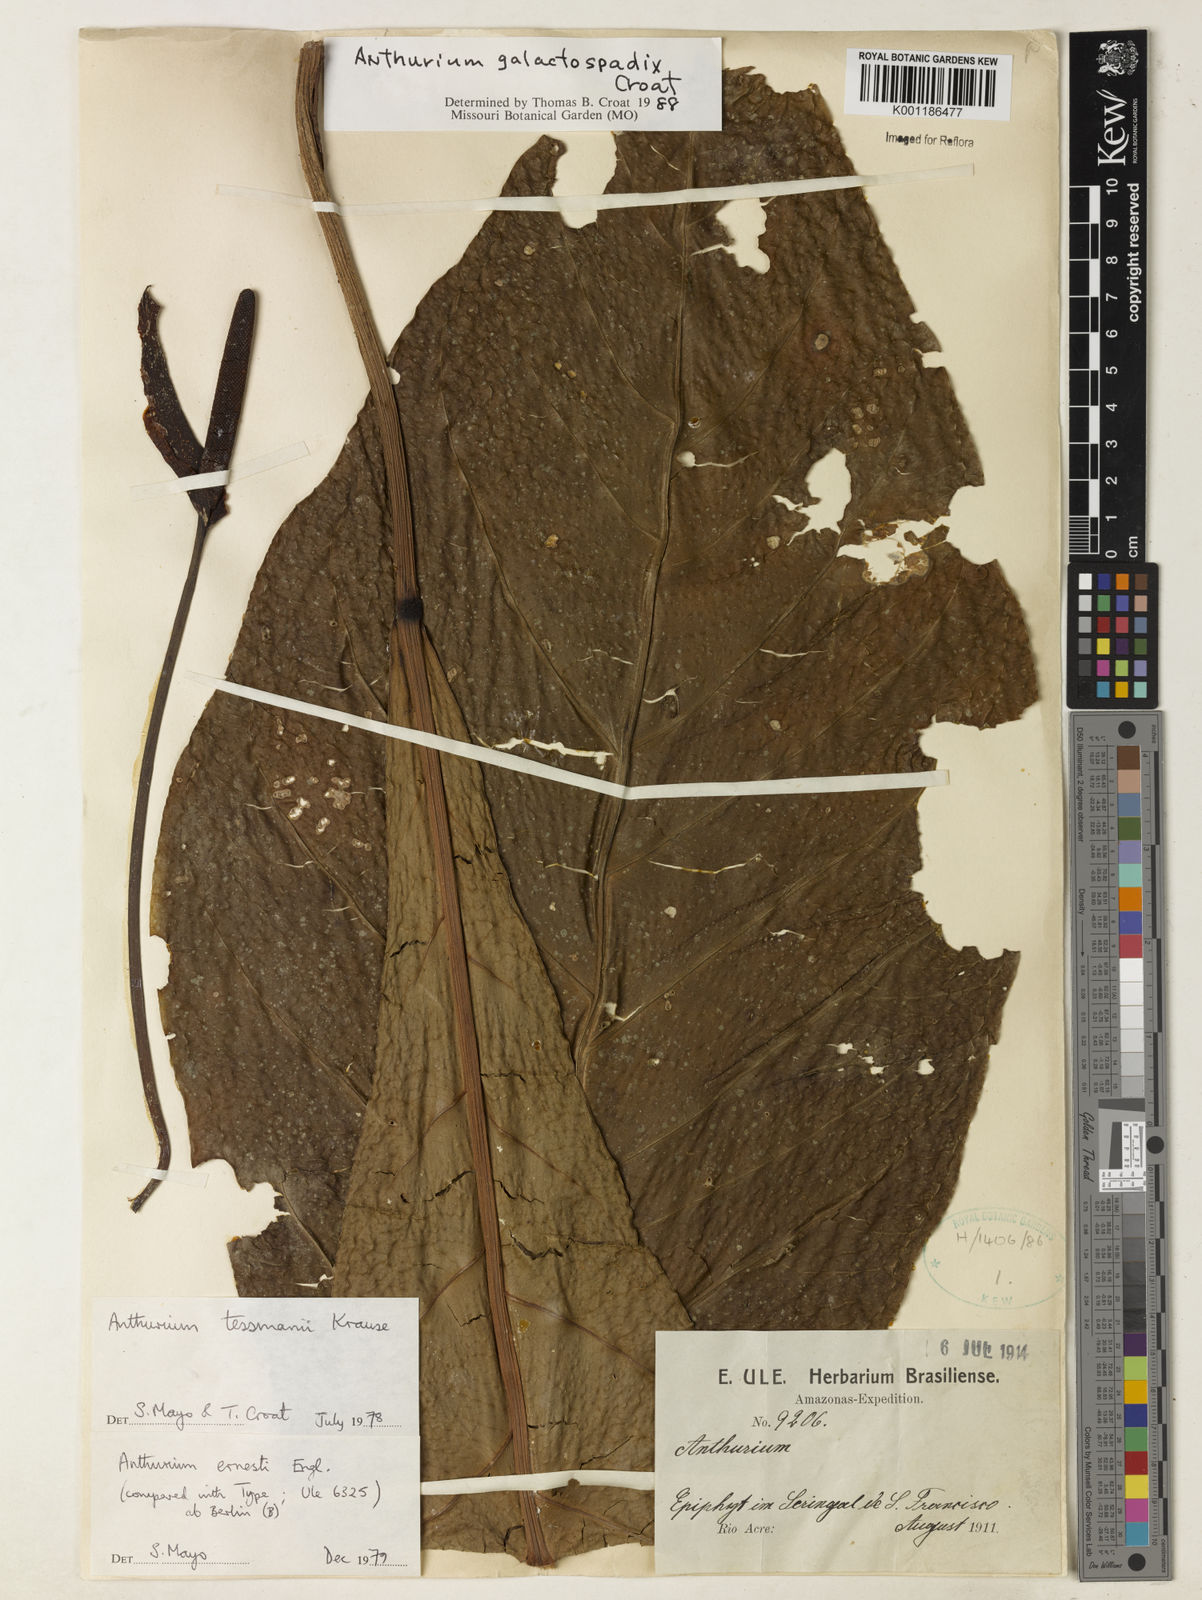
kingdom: Plantae
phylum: Tracheophyta
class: Liliopsida
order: Alismatales
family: Araceae
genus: Anthurium
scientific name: Anthurium galactospadix
